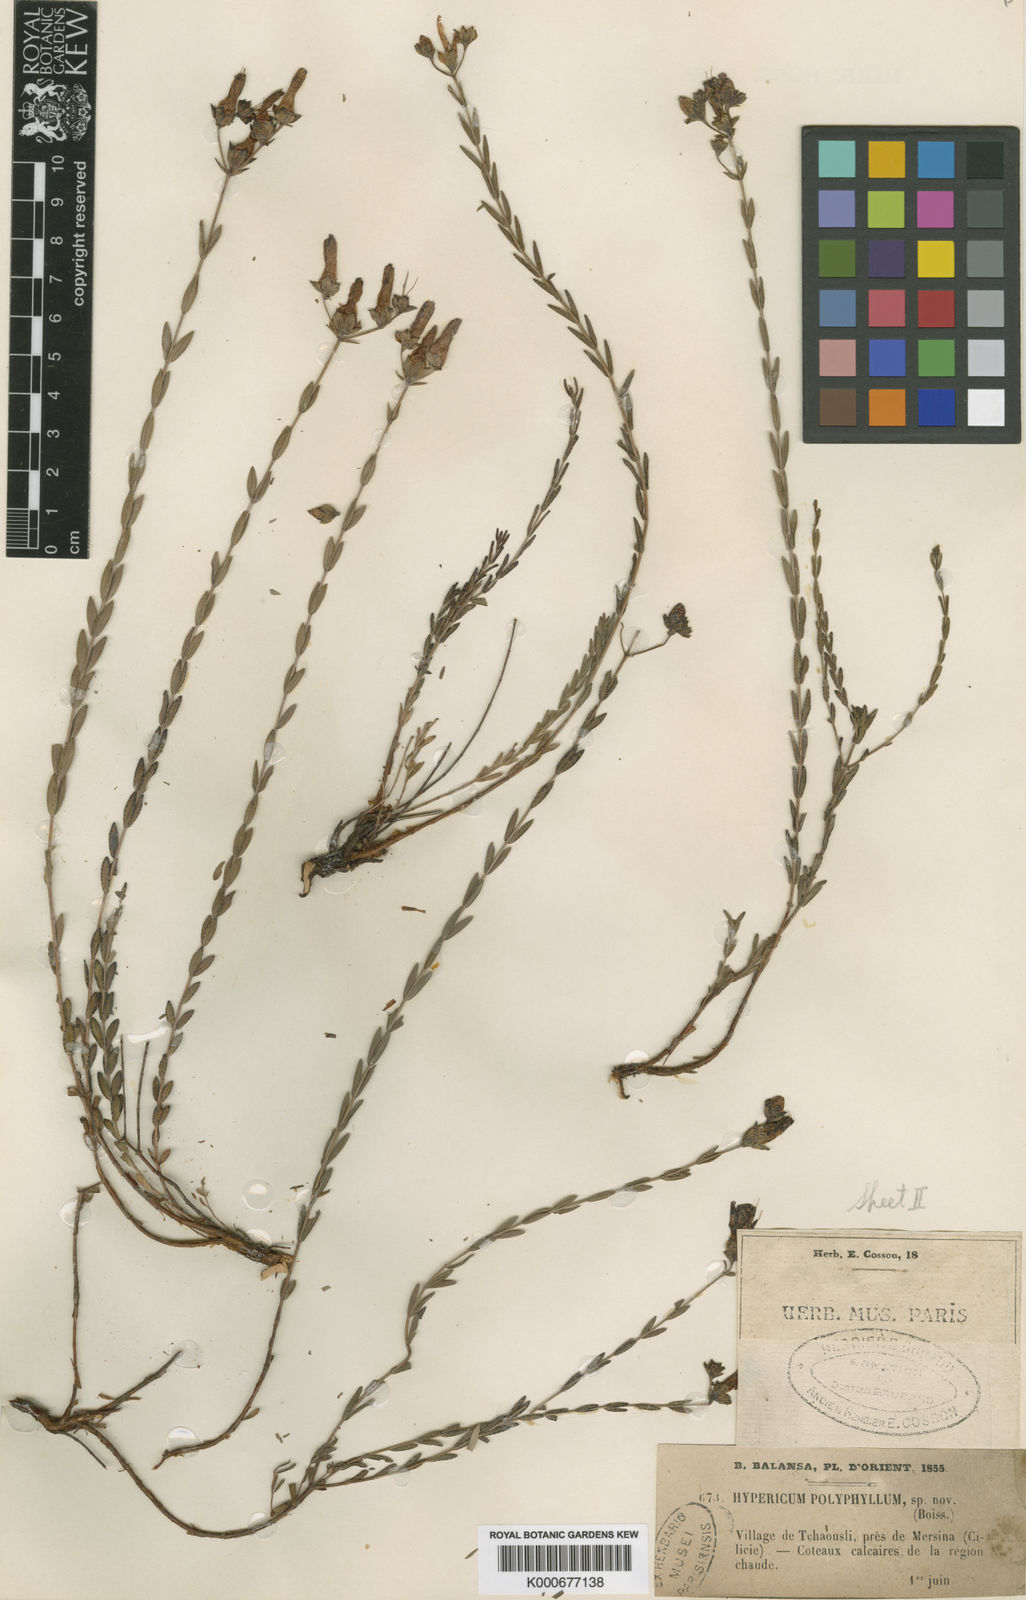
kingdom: Plantae
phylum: Tracheophyta
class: Magnoliopsida
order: Malpighiales
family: Hypericaceae
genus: Hypericum
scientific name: Hypericum polyphyllum
